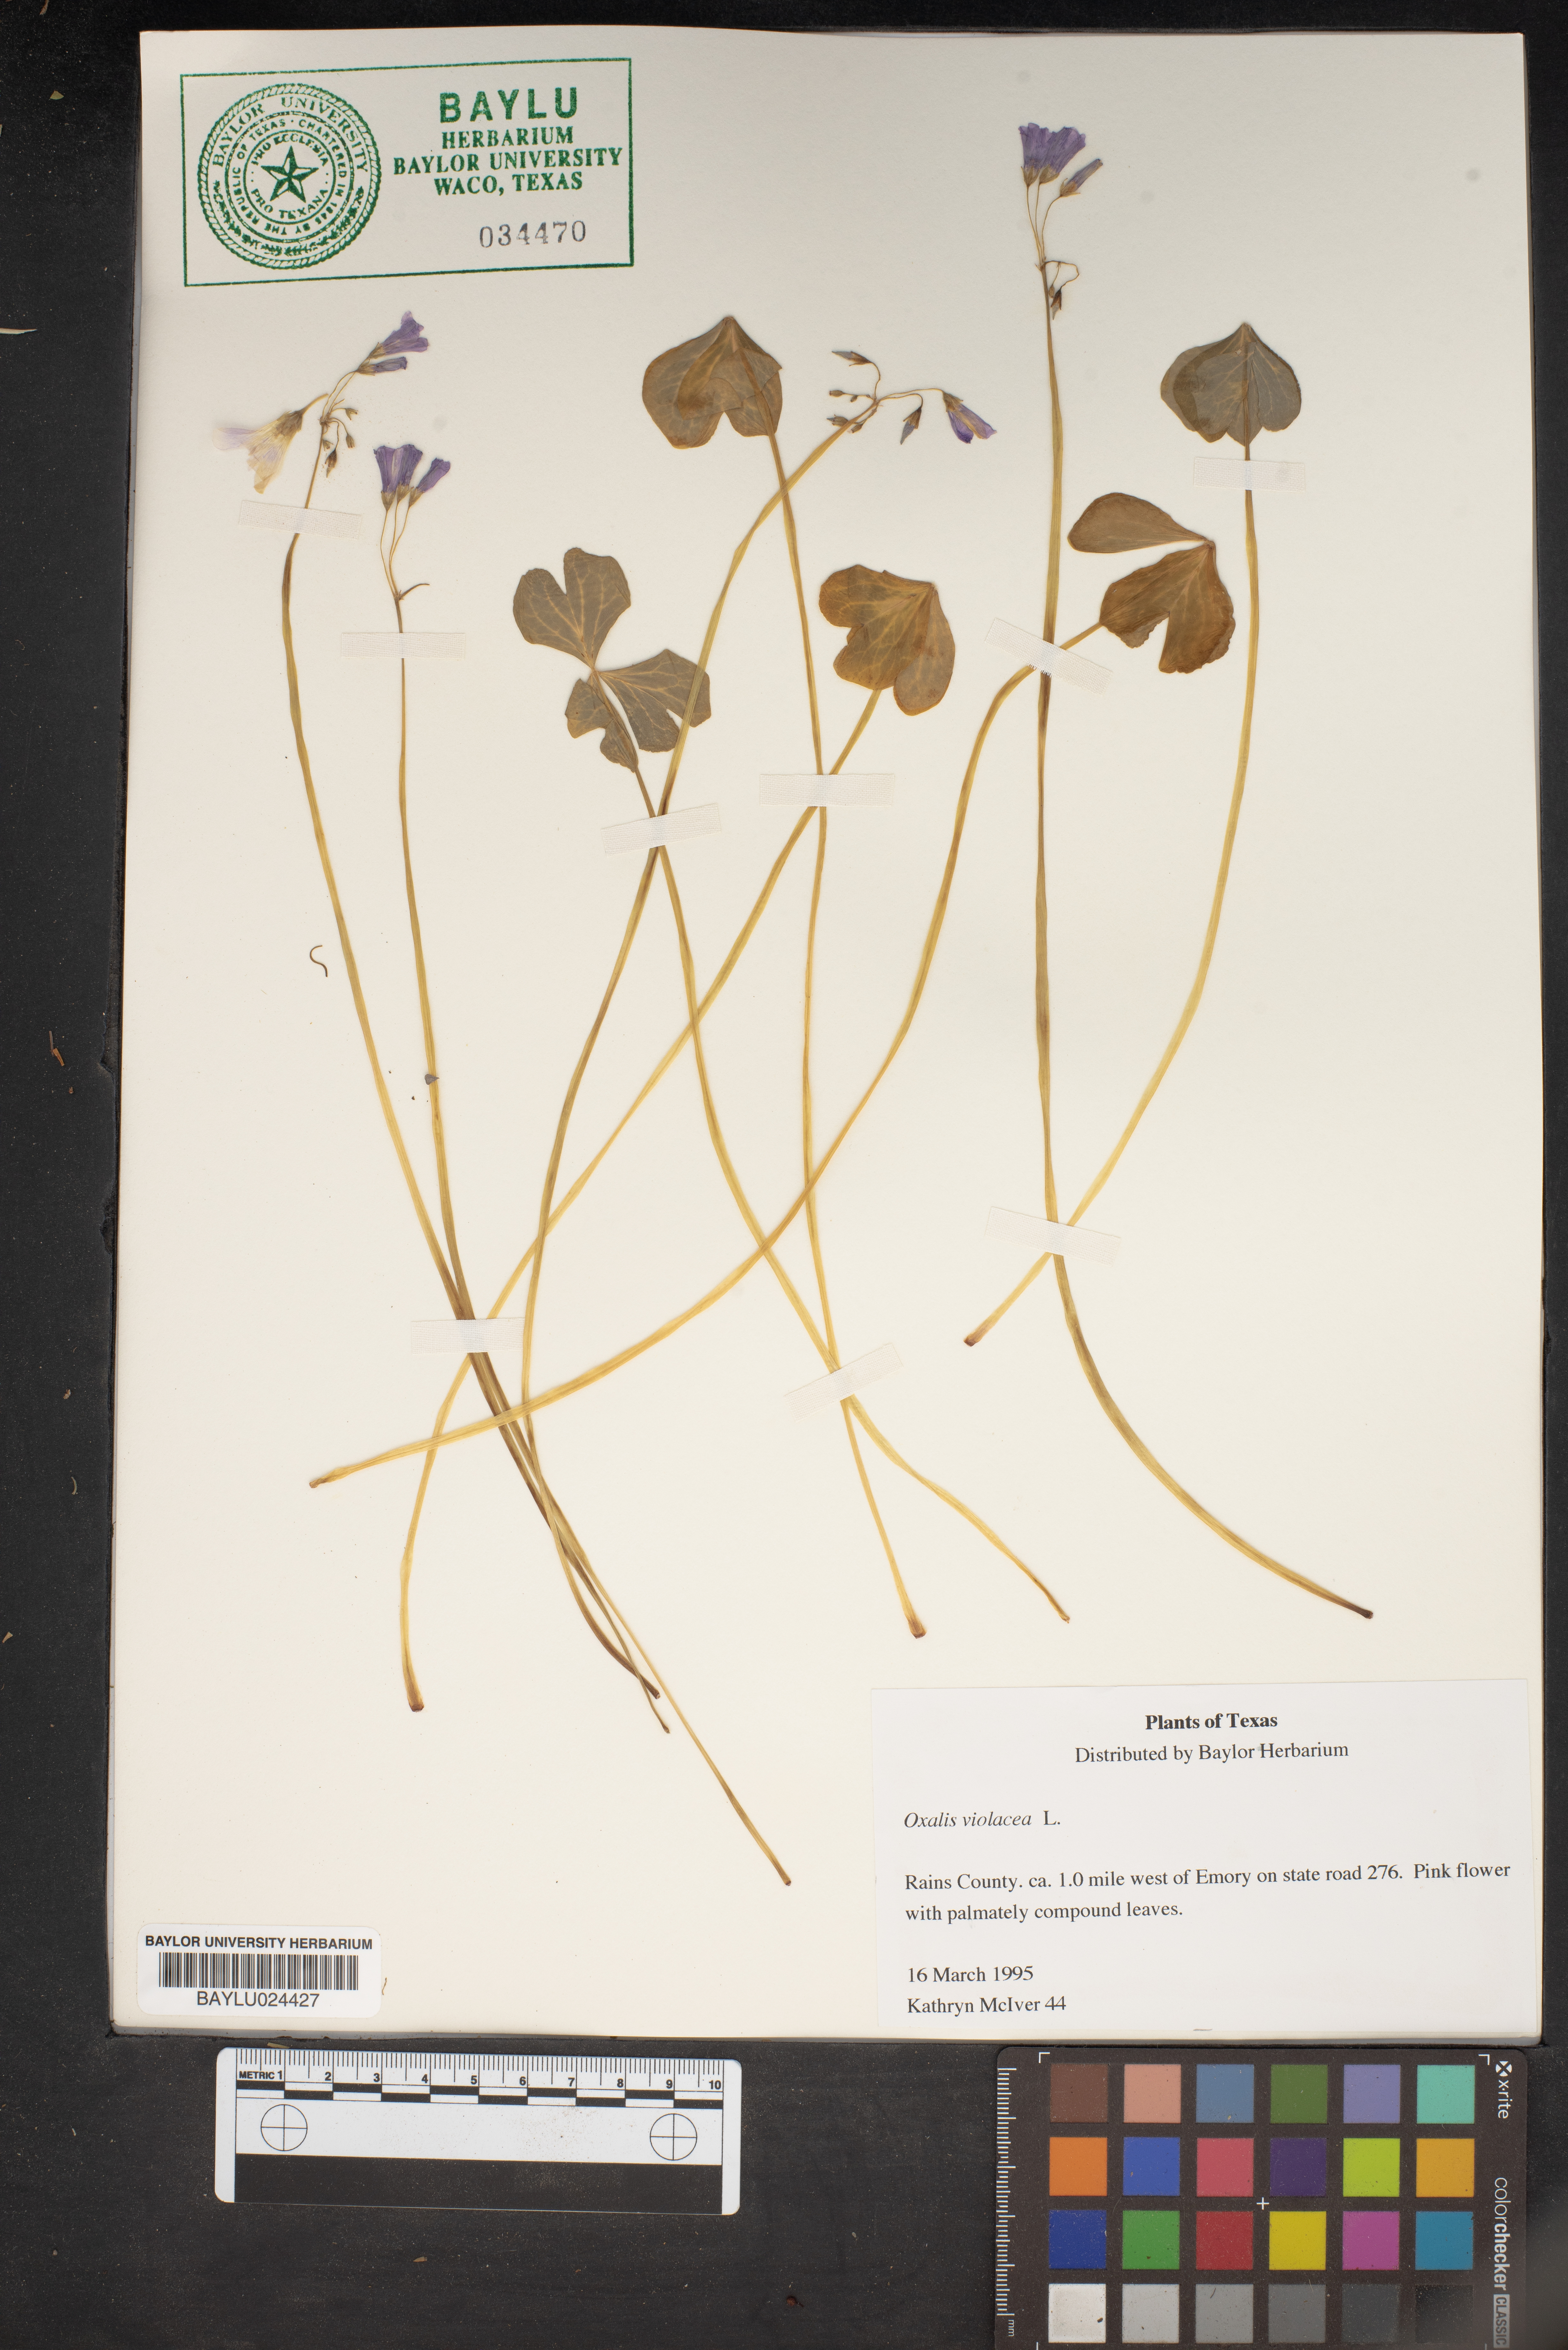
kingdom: Plantae
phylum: Tracheophyta
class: Magnoliopsida
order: Oxalidales
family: Oxalidaceae
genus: Oxalis
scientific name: Oxalis violacea
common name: Violet wood-sorrel
